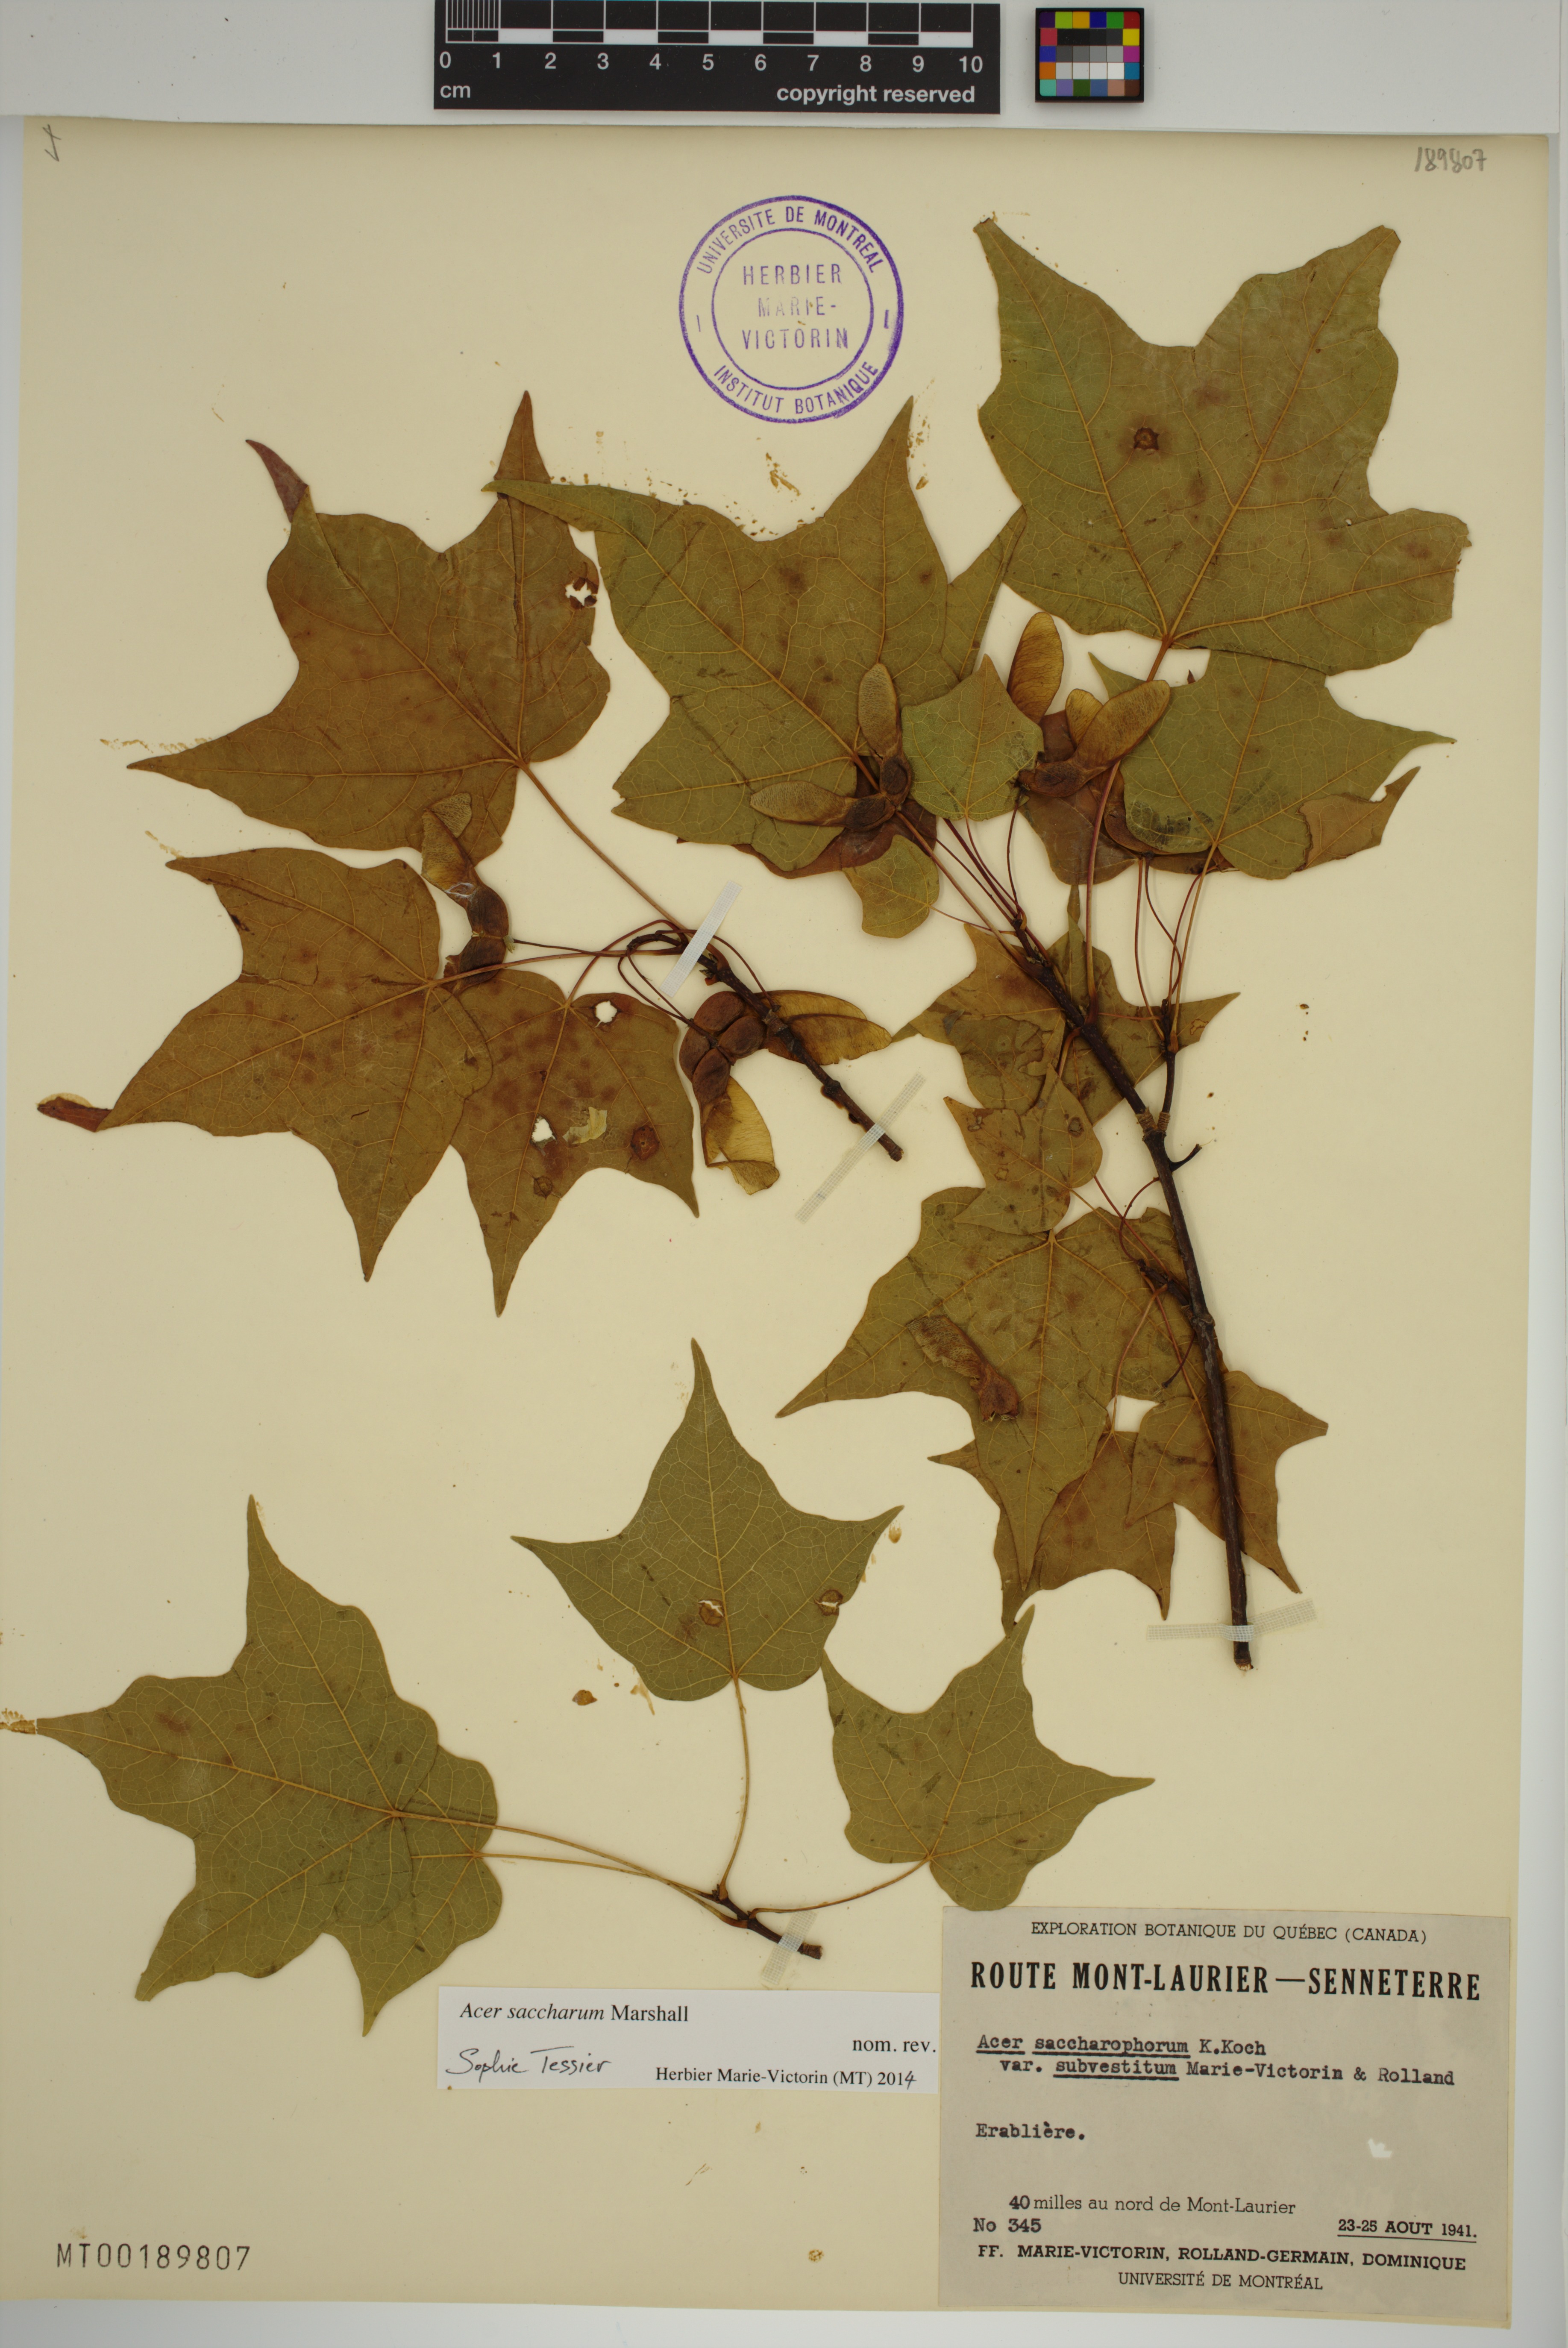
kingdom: Plantae
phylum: Tracheophyta
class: Magnoliopsida
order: Sapindales
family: Sapindaceae
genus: Acer
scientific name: Acer saccharum
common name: Sugar maple
